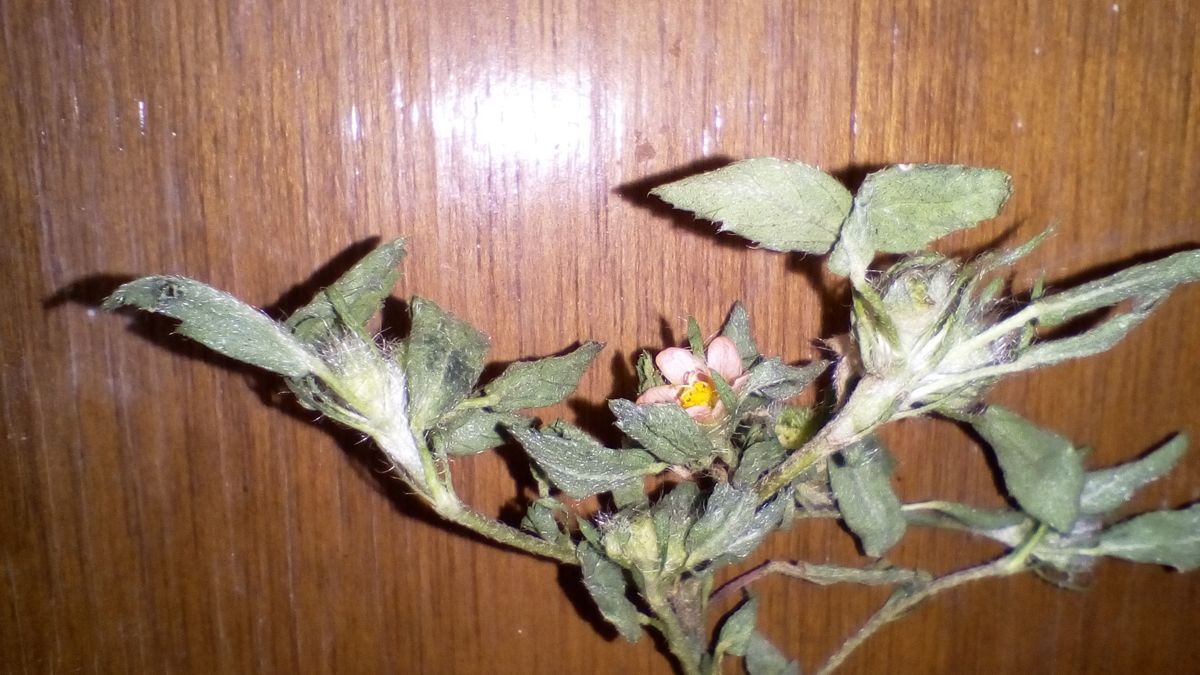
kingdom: Plantae
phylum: Tracheophyta
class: Magnoliopsida
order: Malvales
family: Malvaceae
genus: Sida
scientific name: Sida ciliaris
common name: Bracted fanpetals
